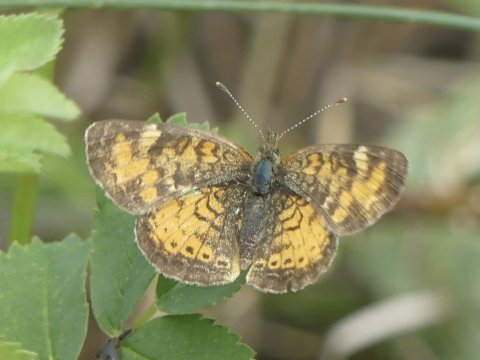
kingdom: Animalia
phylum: Arthropoda
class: Insecta
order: Lepidoptera
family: Nymphalidae
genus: Phyciodes
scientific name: Phyciodes tharos
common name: Northern Crescent
